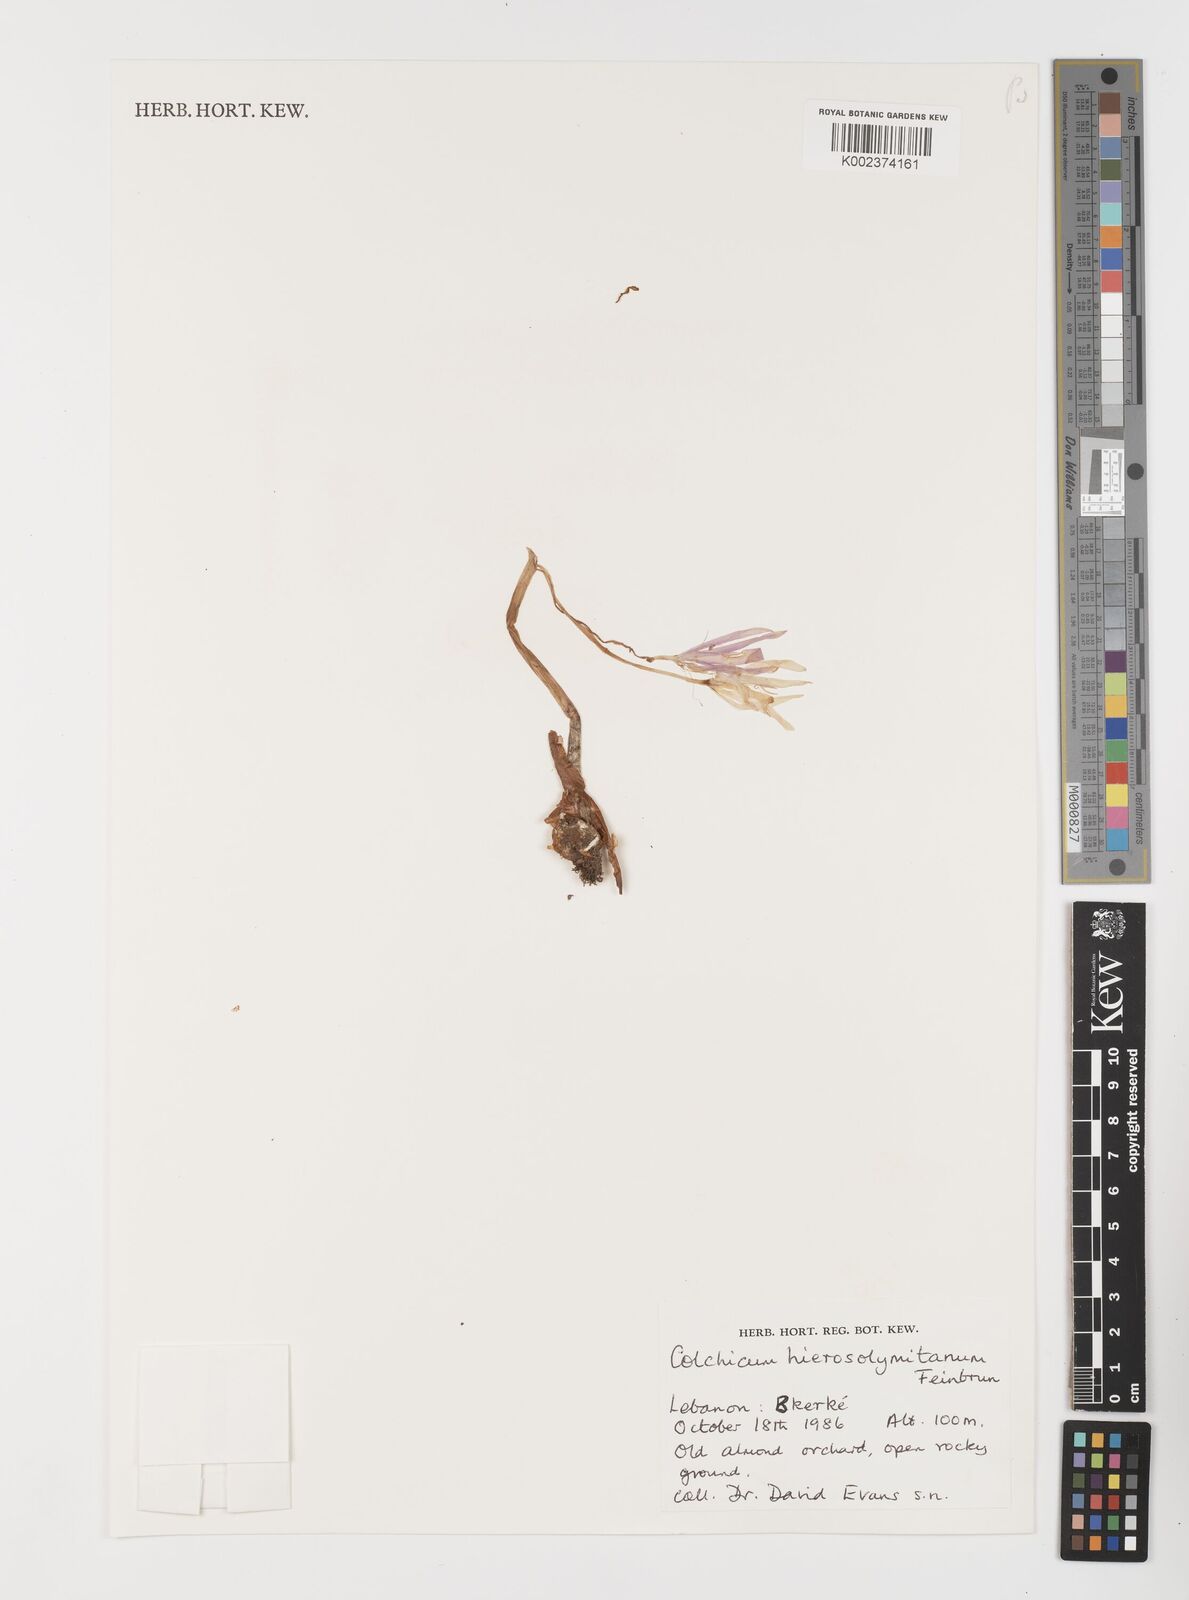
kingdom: Plantae
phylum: Tracheophyta
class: Liliopsida
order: Liliales
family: Colchicaceae
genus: Colchicum
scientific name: Colchicum hierosolymitanum
